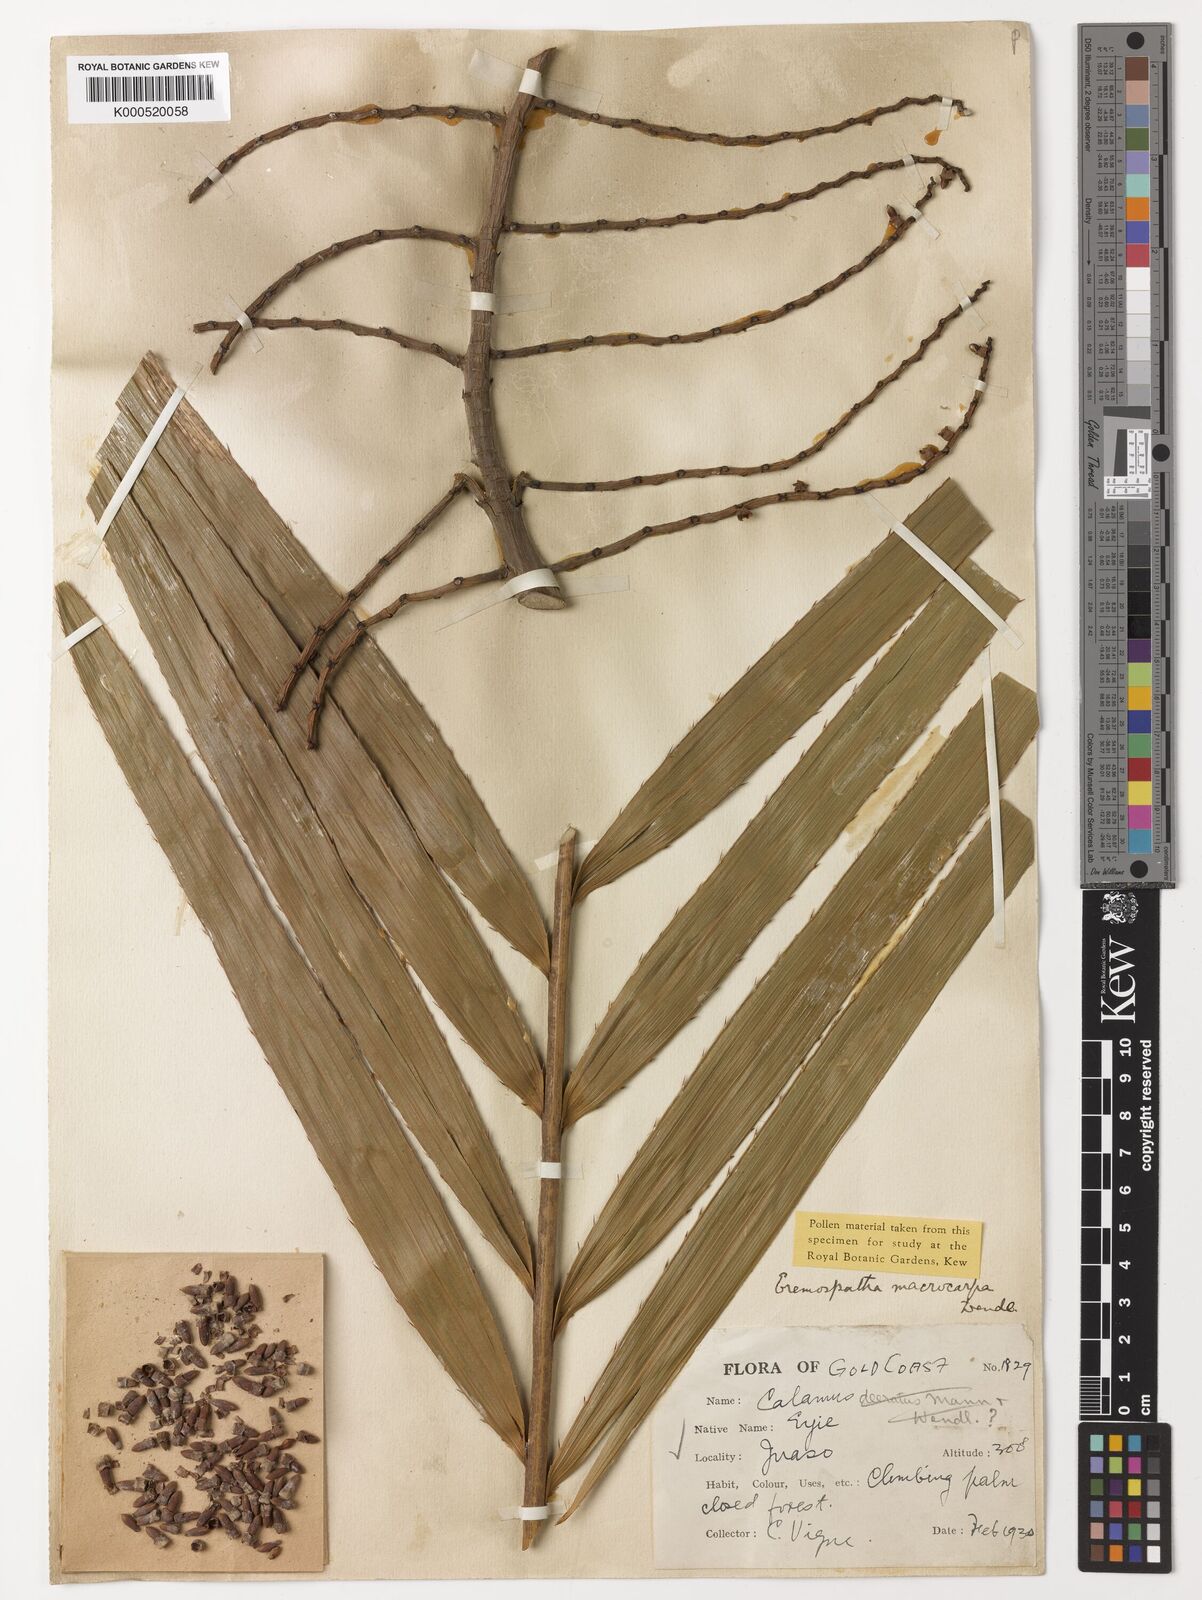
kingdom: Plantae
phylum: Tracheophyta
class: Liliopsida
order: Arecales
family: Arecaceae
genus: Eremospatha
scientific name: Eremospatha
